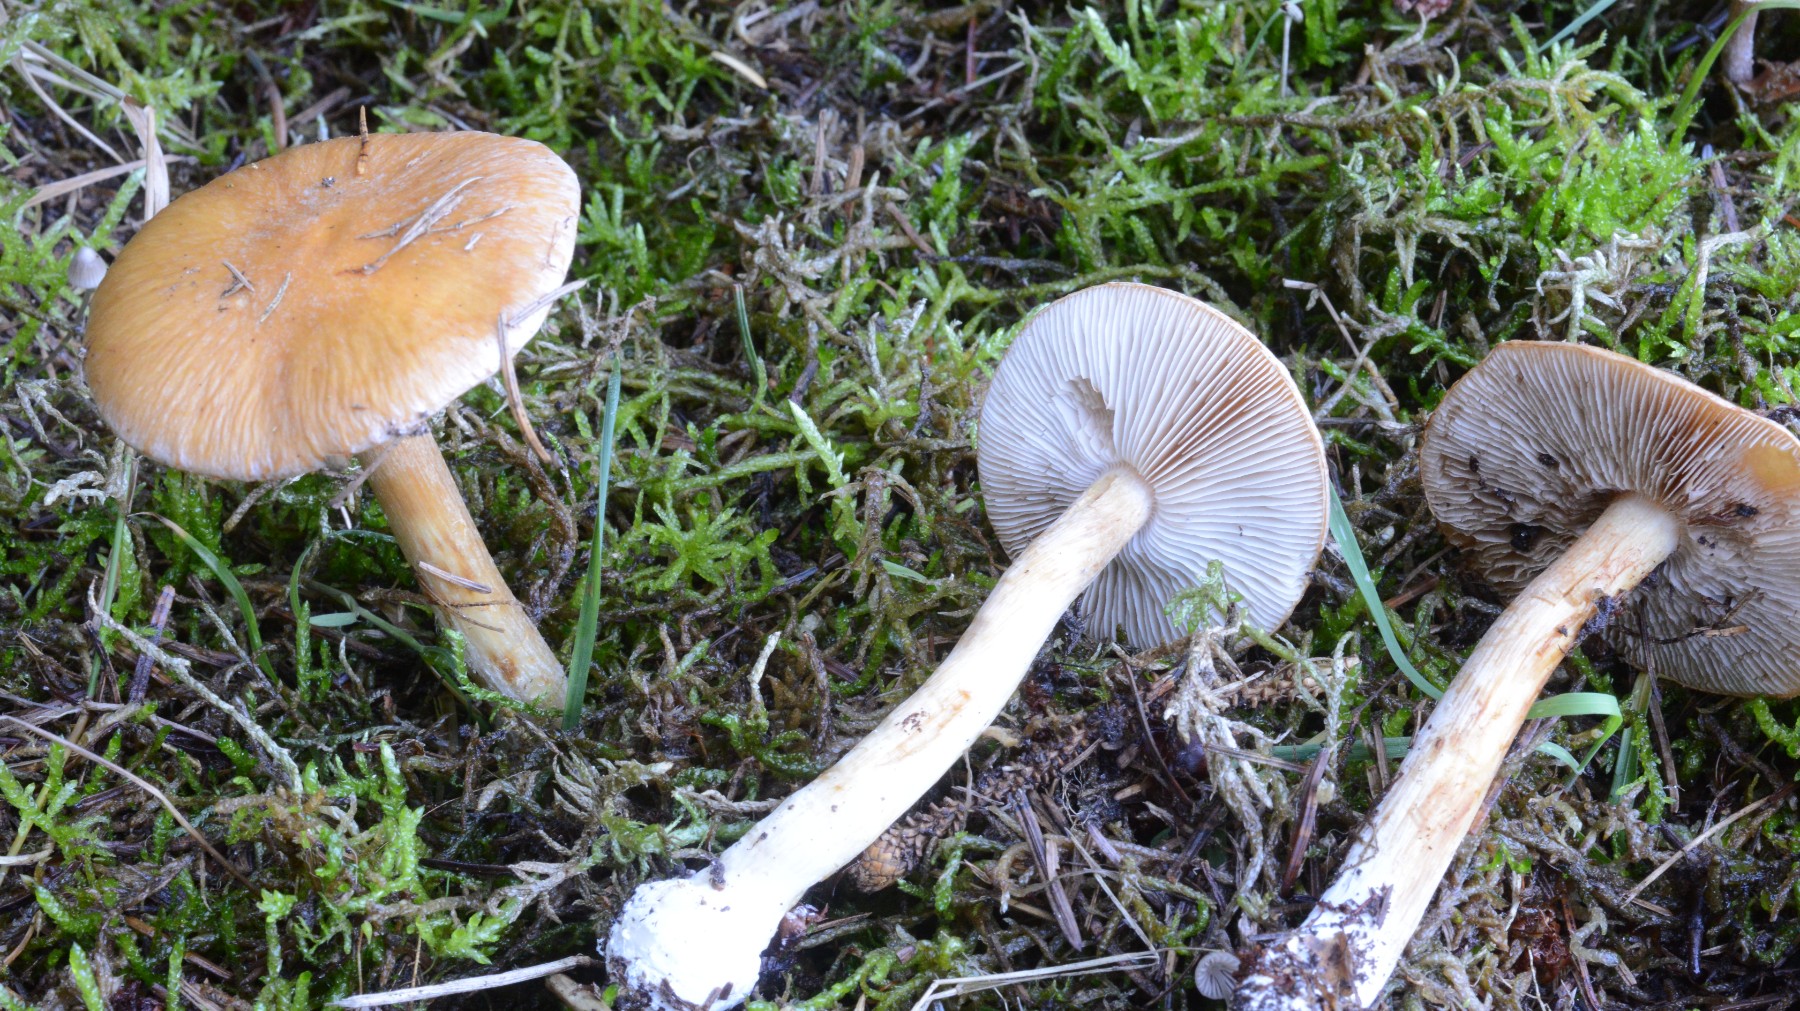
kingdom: Fungi
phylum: Basidiomycota
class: Agaricomycetes
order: Agaricales
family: Cortinariaceae
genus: Thaxterogaster
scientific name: Thaxterogaster multiformis
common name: honning-slørhat
